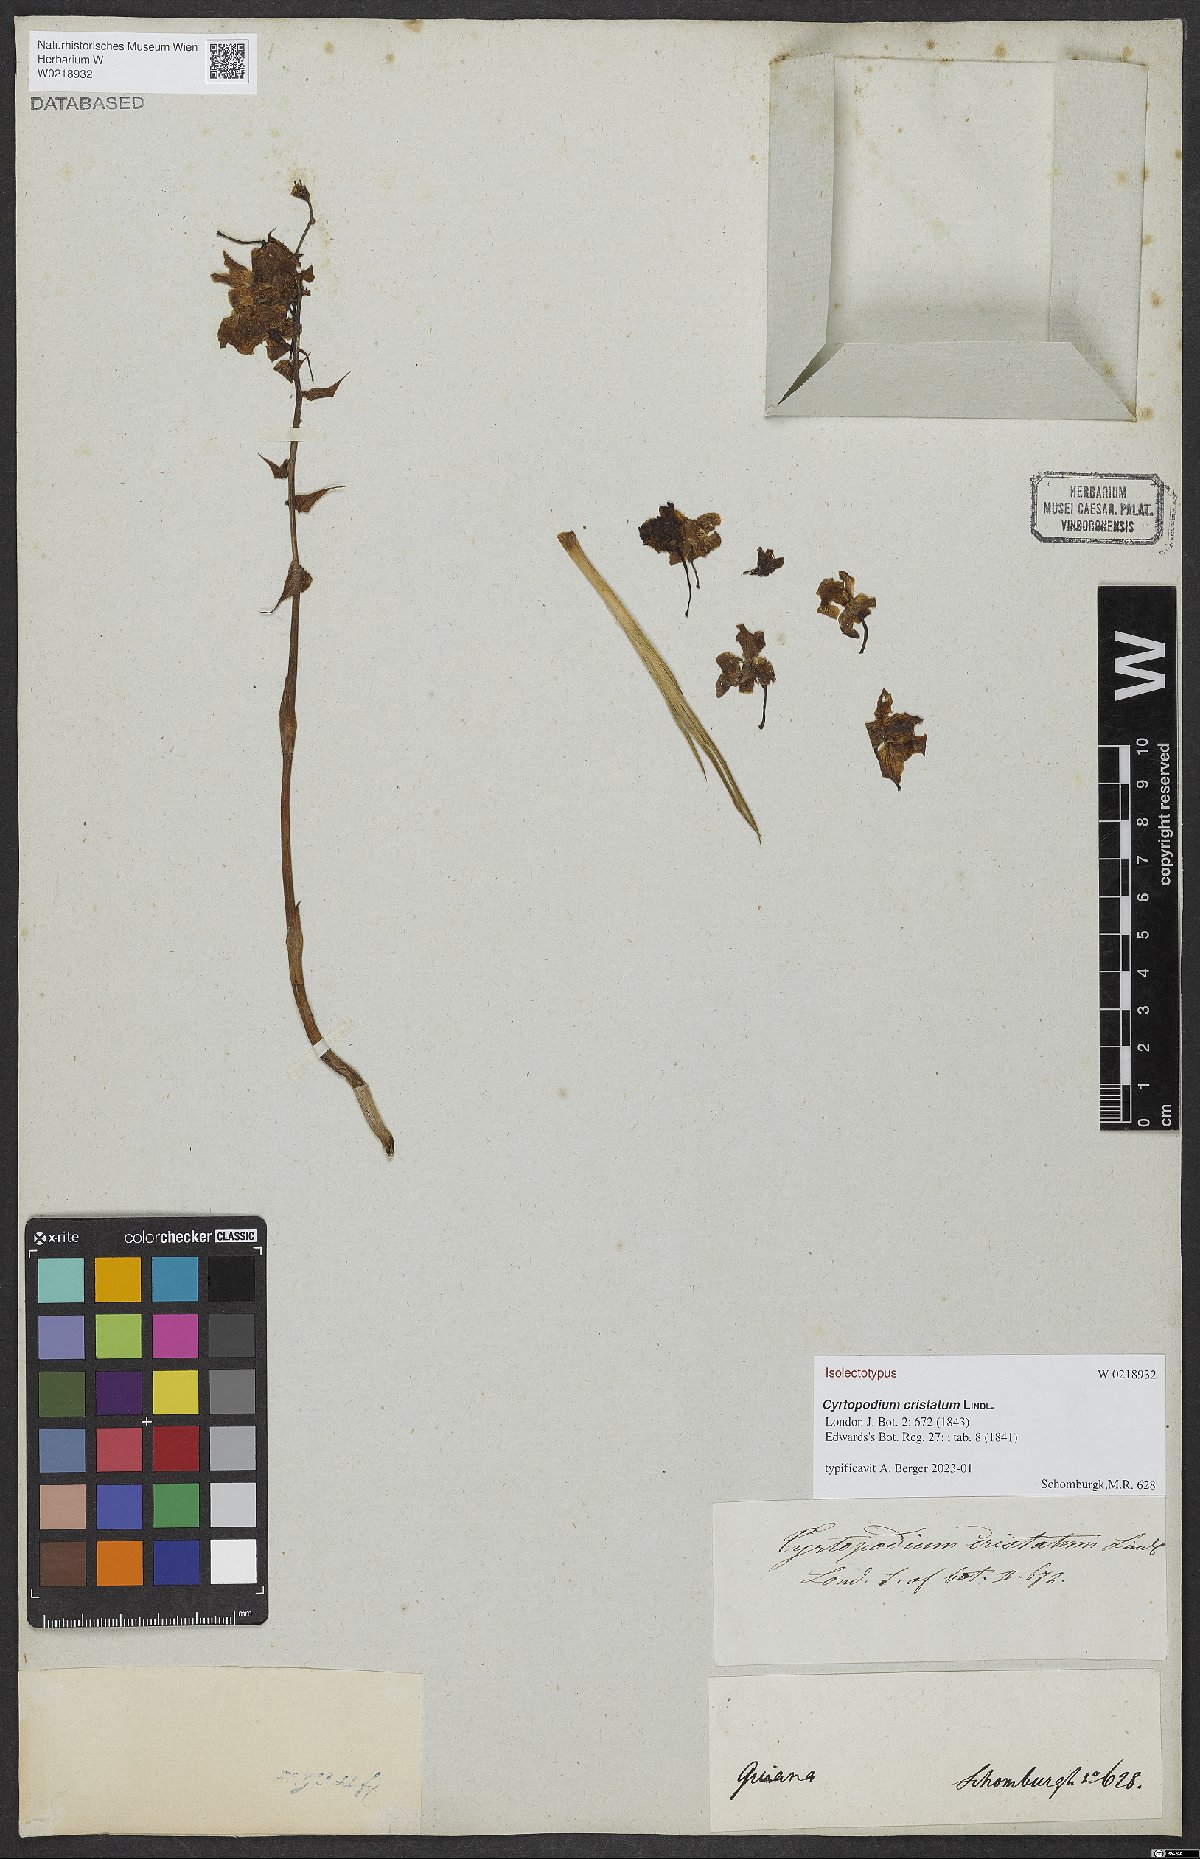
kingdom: Plantae
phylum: Tracheophyta
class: Liliopsida
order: Asparagales
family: Orchidaceae
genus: Cyrtopodium
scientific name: Cyrtopodium cristatum
